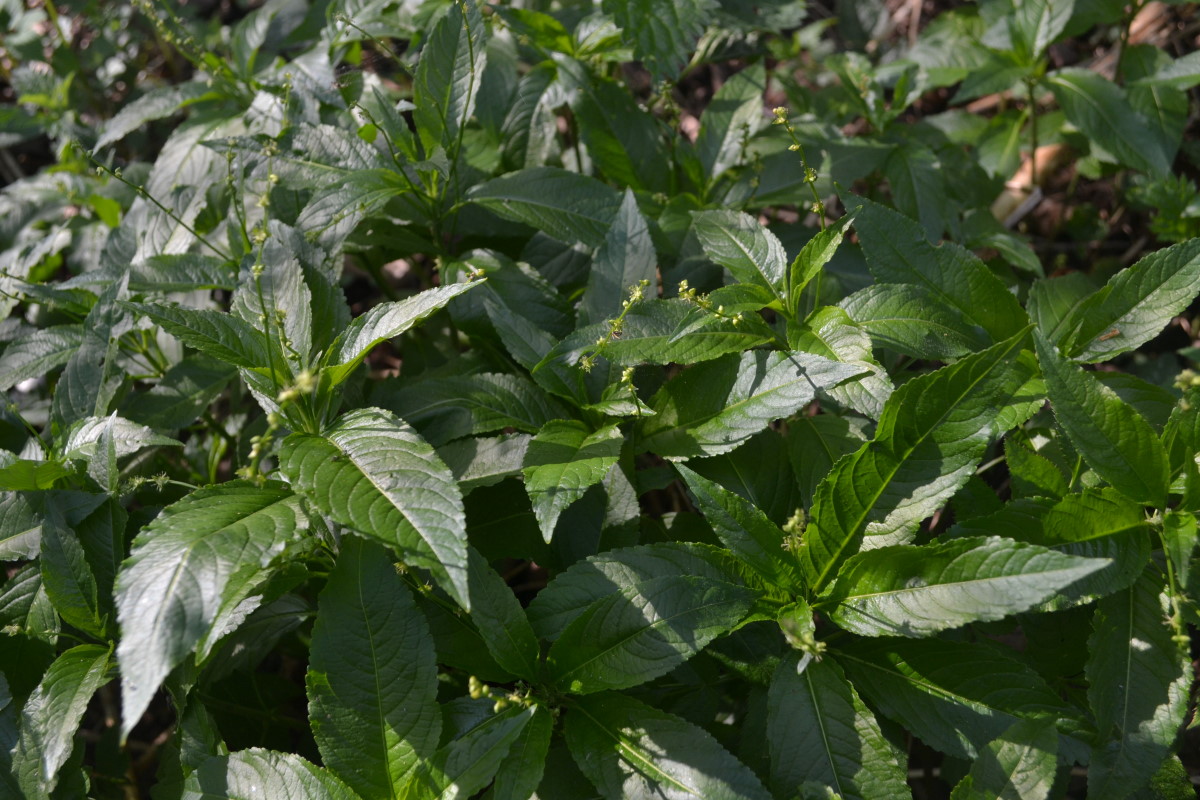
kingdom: Plantae
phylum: Tracheophyta
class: Magnoliopsida
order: Myrtales
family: Onagraceae
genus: Circaea
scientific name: Circaea lutetiana
